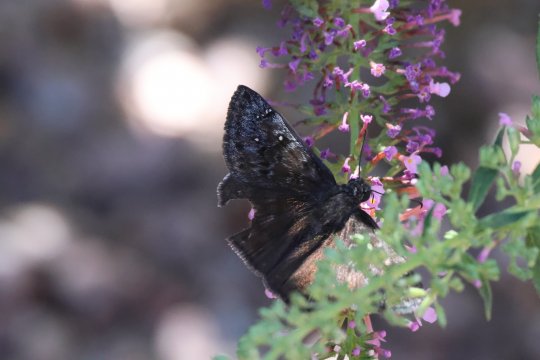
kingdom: Animalia
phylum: Arthropoda
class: Insecta
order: Lepidoptera
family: Hesperiidae
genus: Erynnis
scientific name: Erynnis funeralis
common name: Funereal Duskywing
